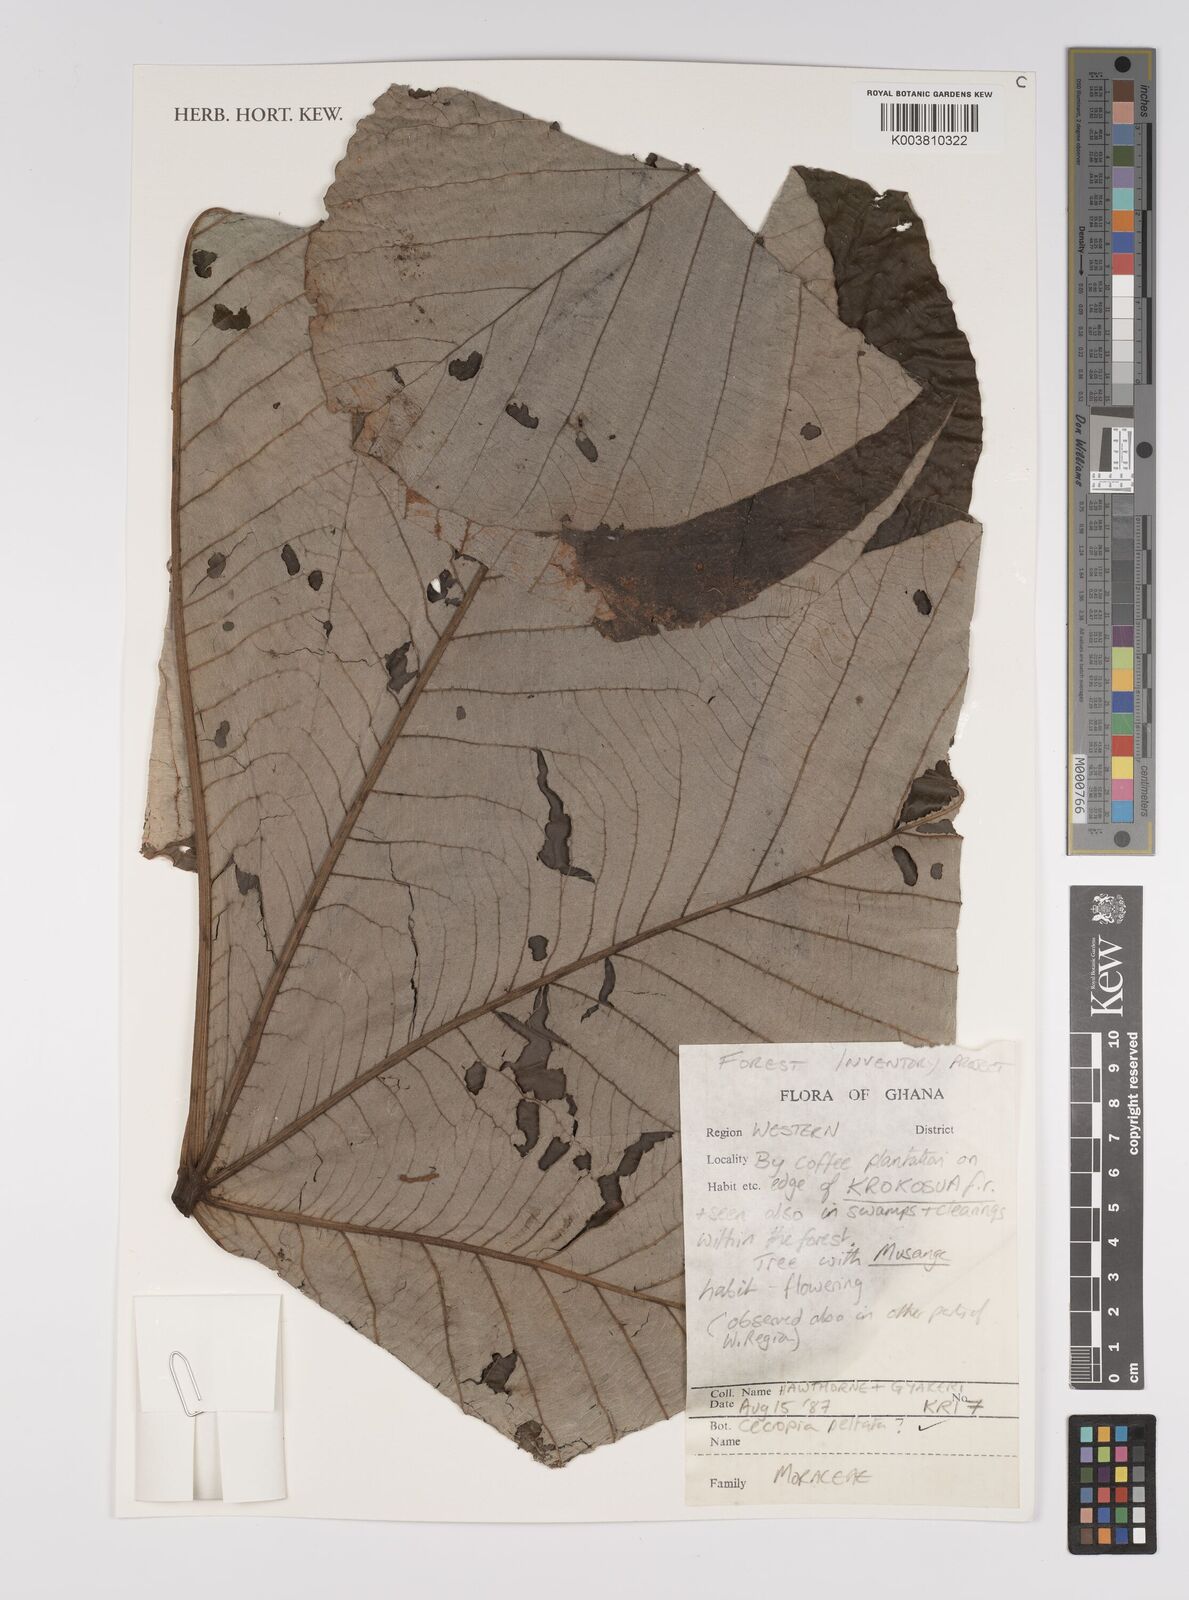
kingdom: Plantae
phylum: Tracheophyta
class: Magnoliopsida
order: Rosales
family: Urticaceae
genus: Cecropia
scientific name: Cecropia peltata
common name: Trumpet-tree
